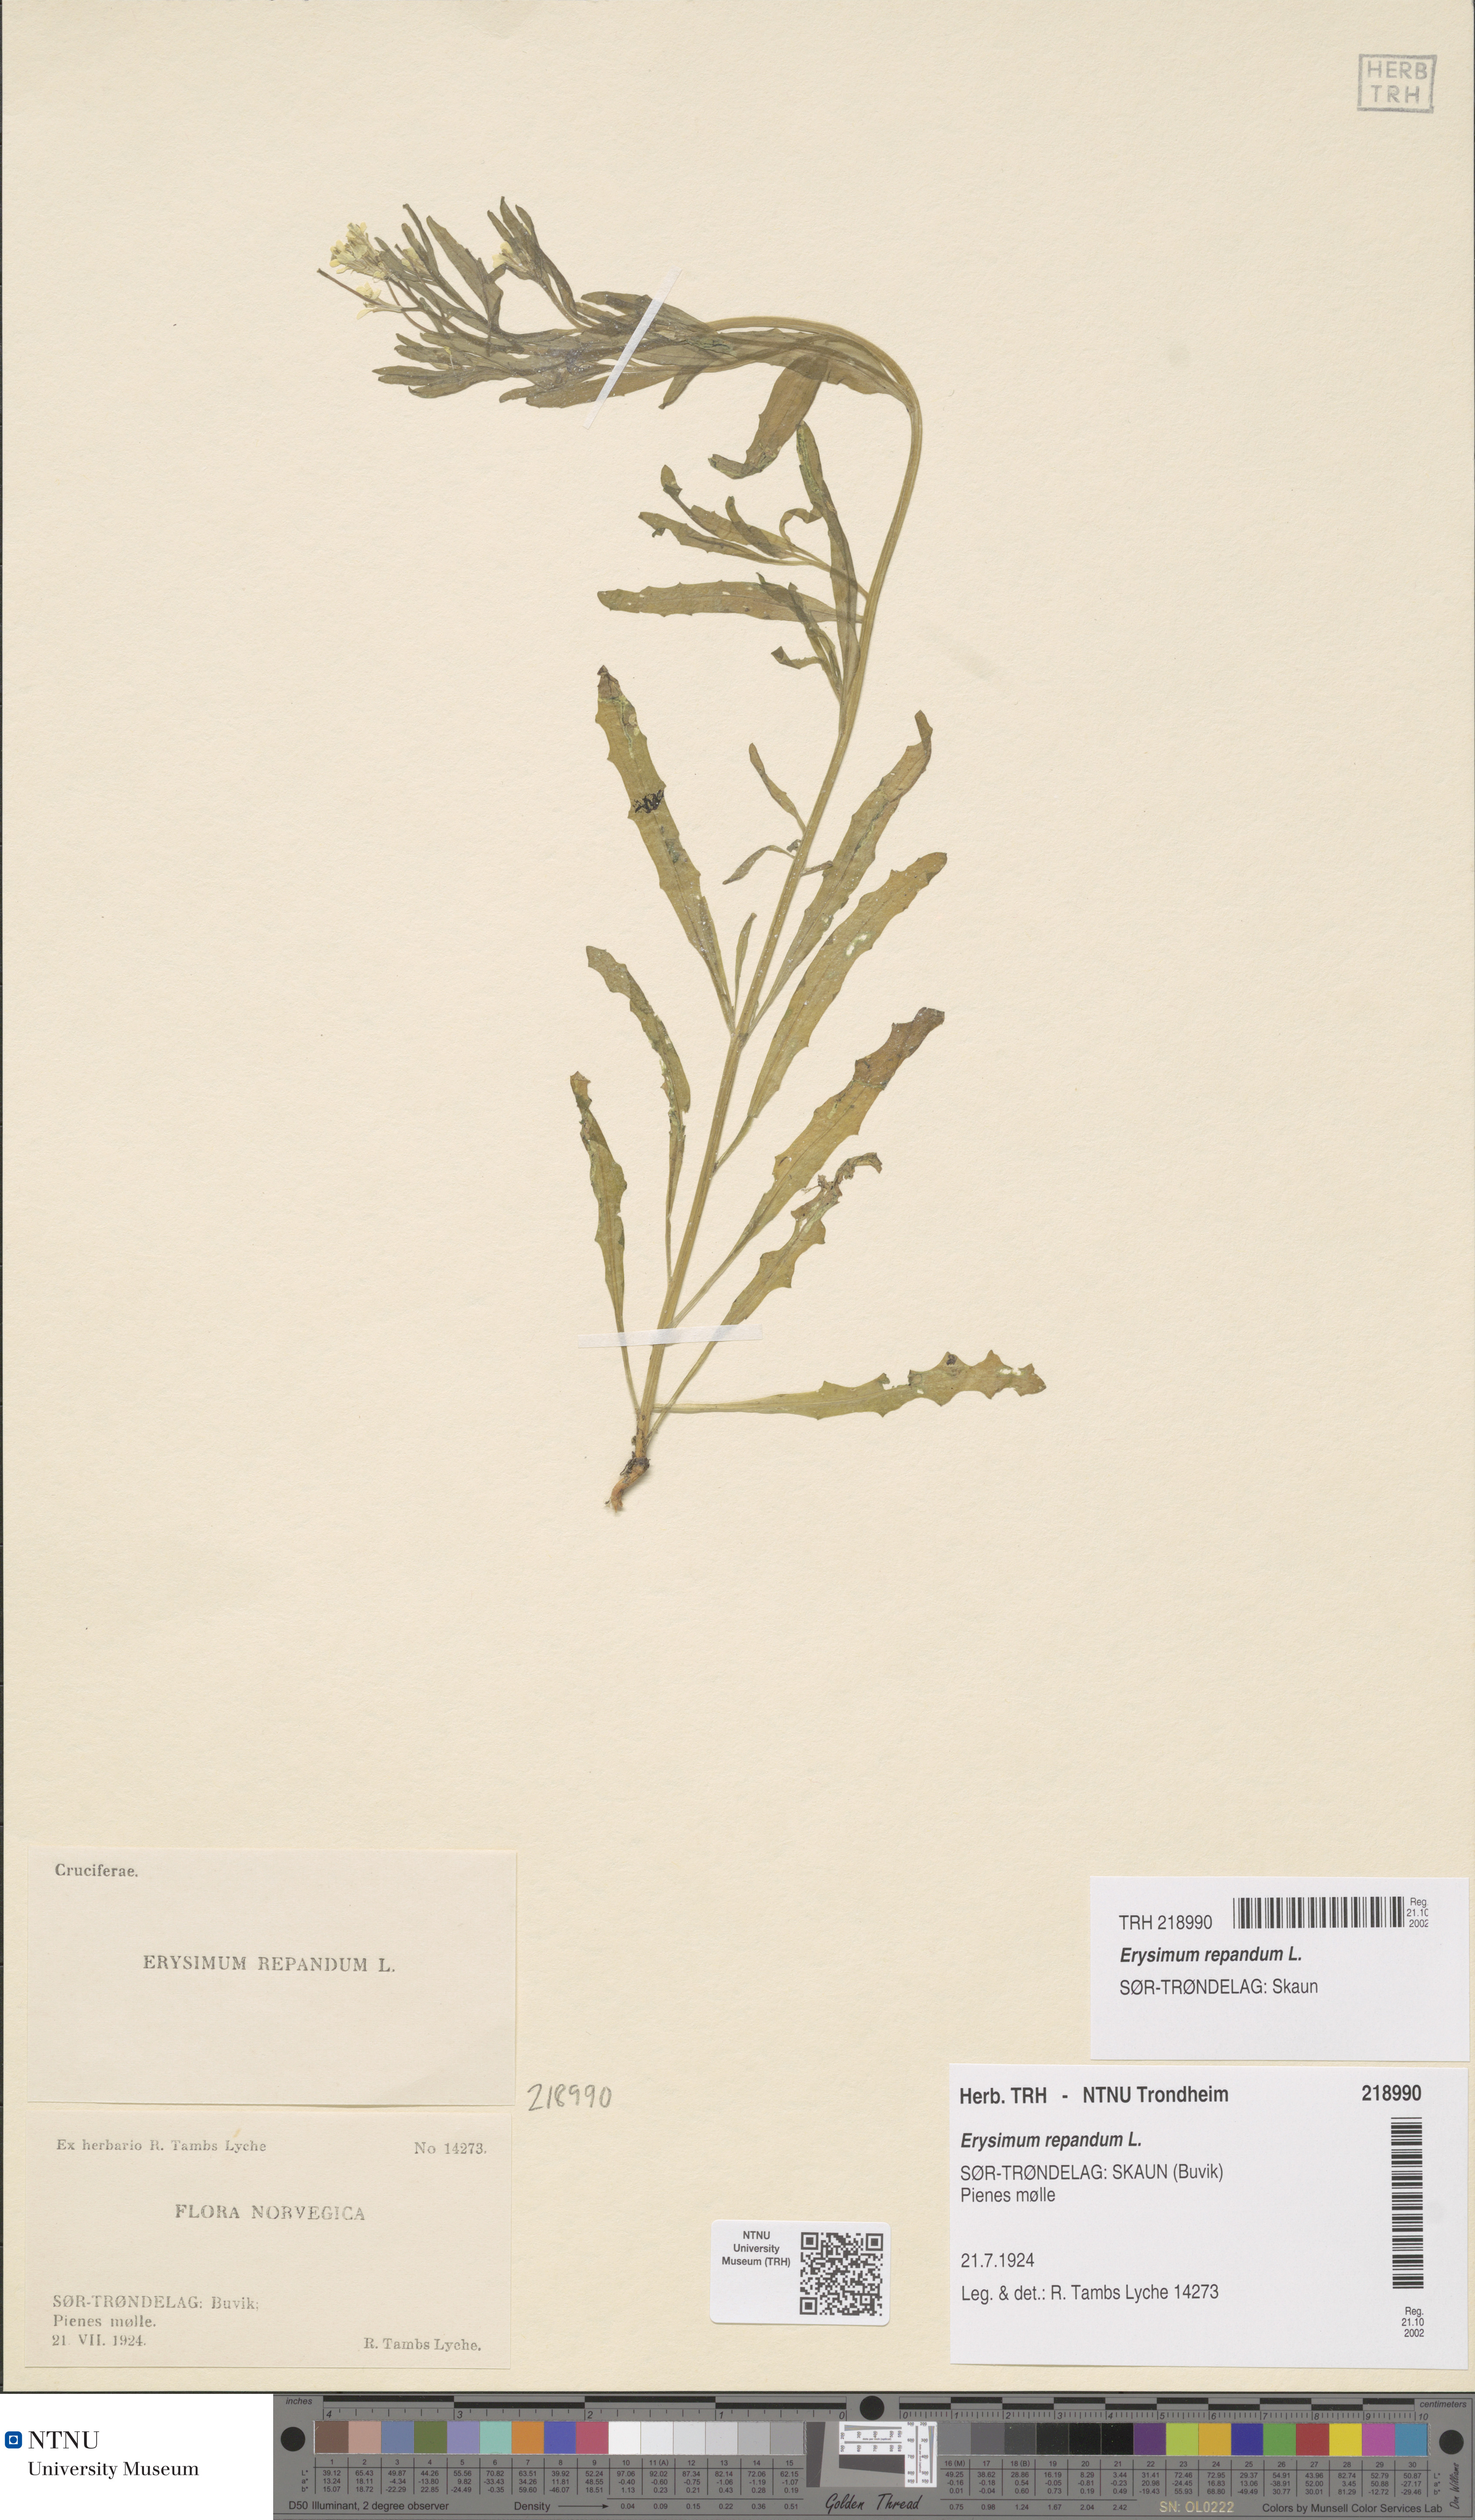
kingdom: Plantae
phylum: Tracheophyta
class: Magnoliopsida
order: Brassicales
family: Brassicaceae
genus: Erysimum
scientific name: Erysimum repandum
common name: Spreading wallflower
